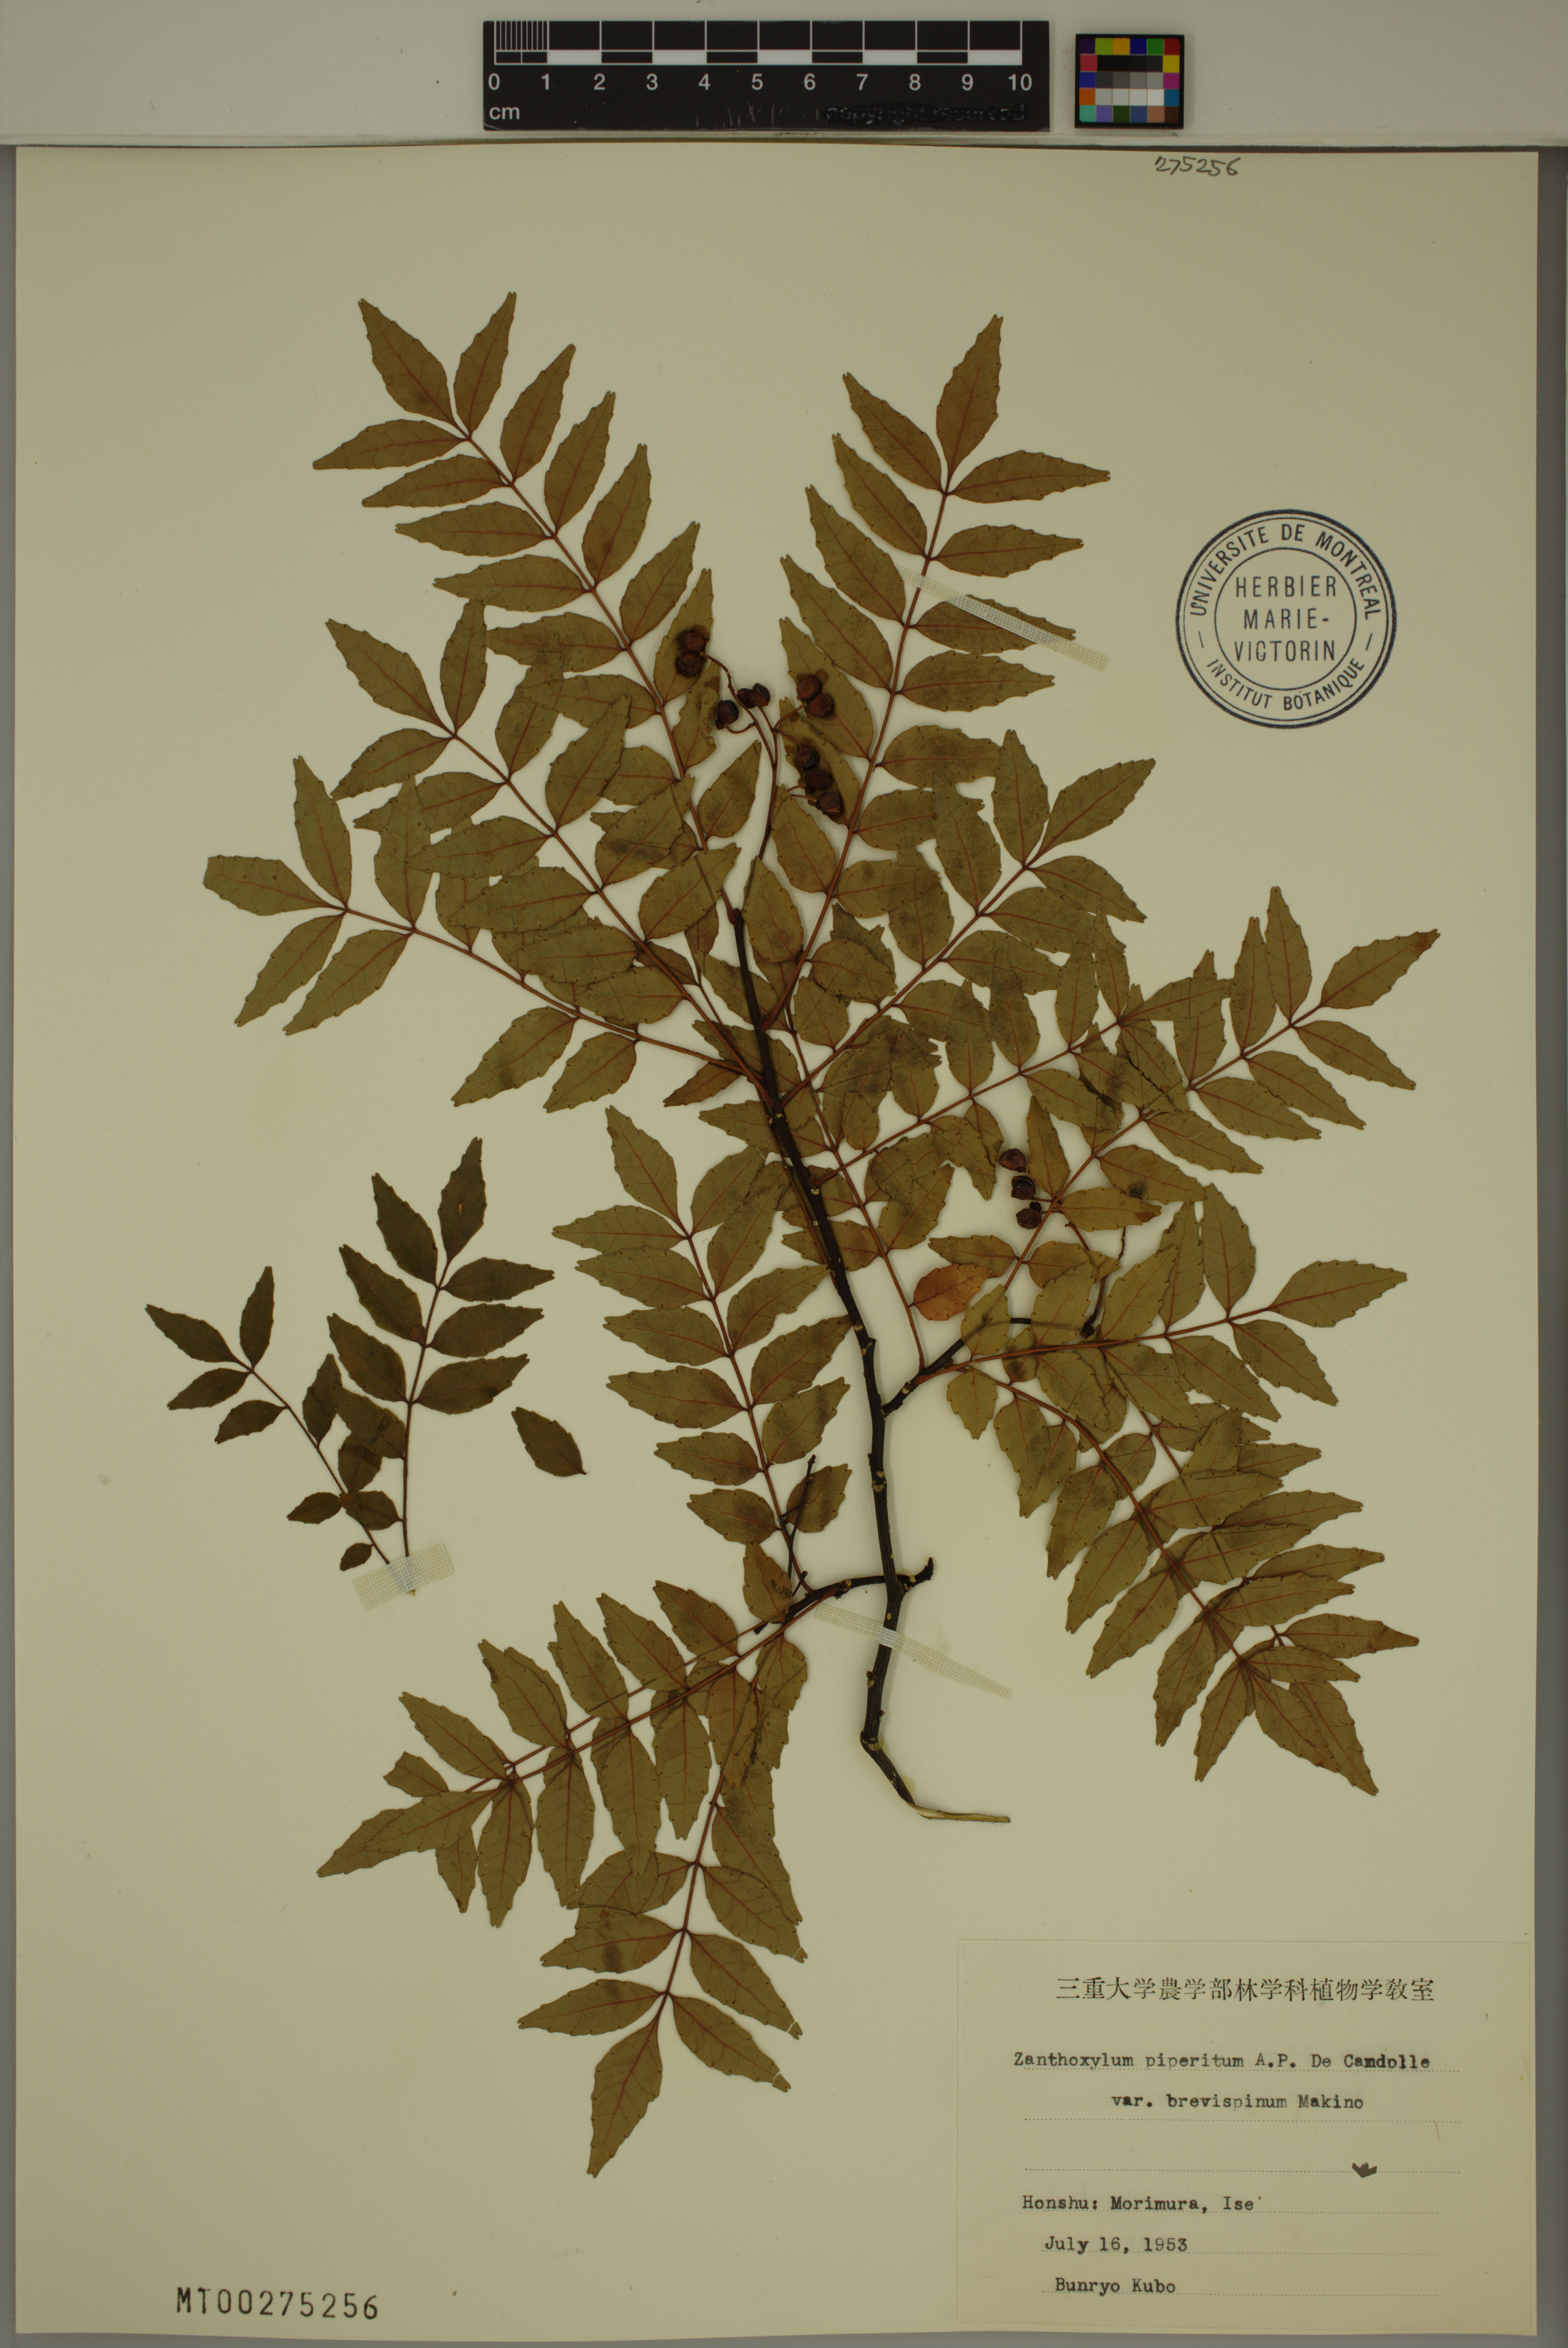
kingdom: Plantae
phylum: Tracheophyta
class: Magnoliopsida
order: Sapindales
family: Rutaceae
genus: Zanthoxylum
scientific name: Zanthoxylum piperitum
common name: Japanese-pepper
